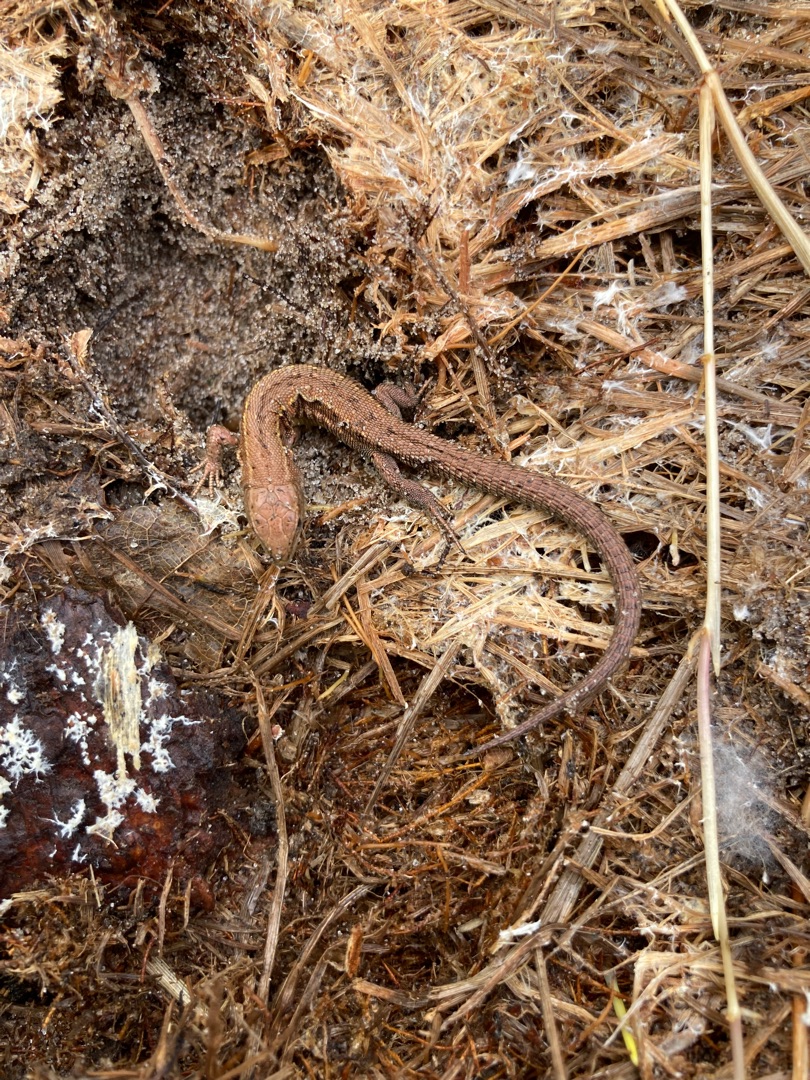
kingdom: Animalia
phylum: Chordata
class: Squamata
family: Lacertidae
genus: Zootoca
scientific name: Zootoca vivipara
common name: Skovfirben
